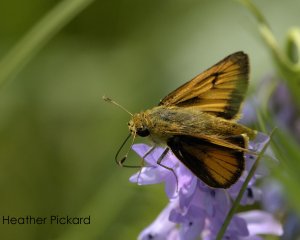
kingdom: Animalia
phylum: Arthropoda
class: Insecta
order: Lepidoptera
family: Hesperiidae
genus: Atrytone
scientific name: Atrytone delaware
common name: Delaware Skipper
